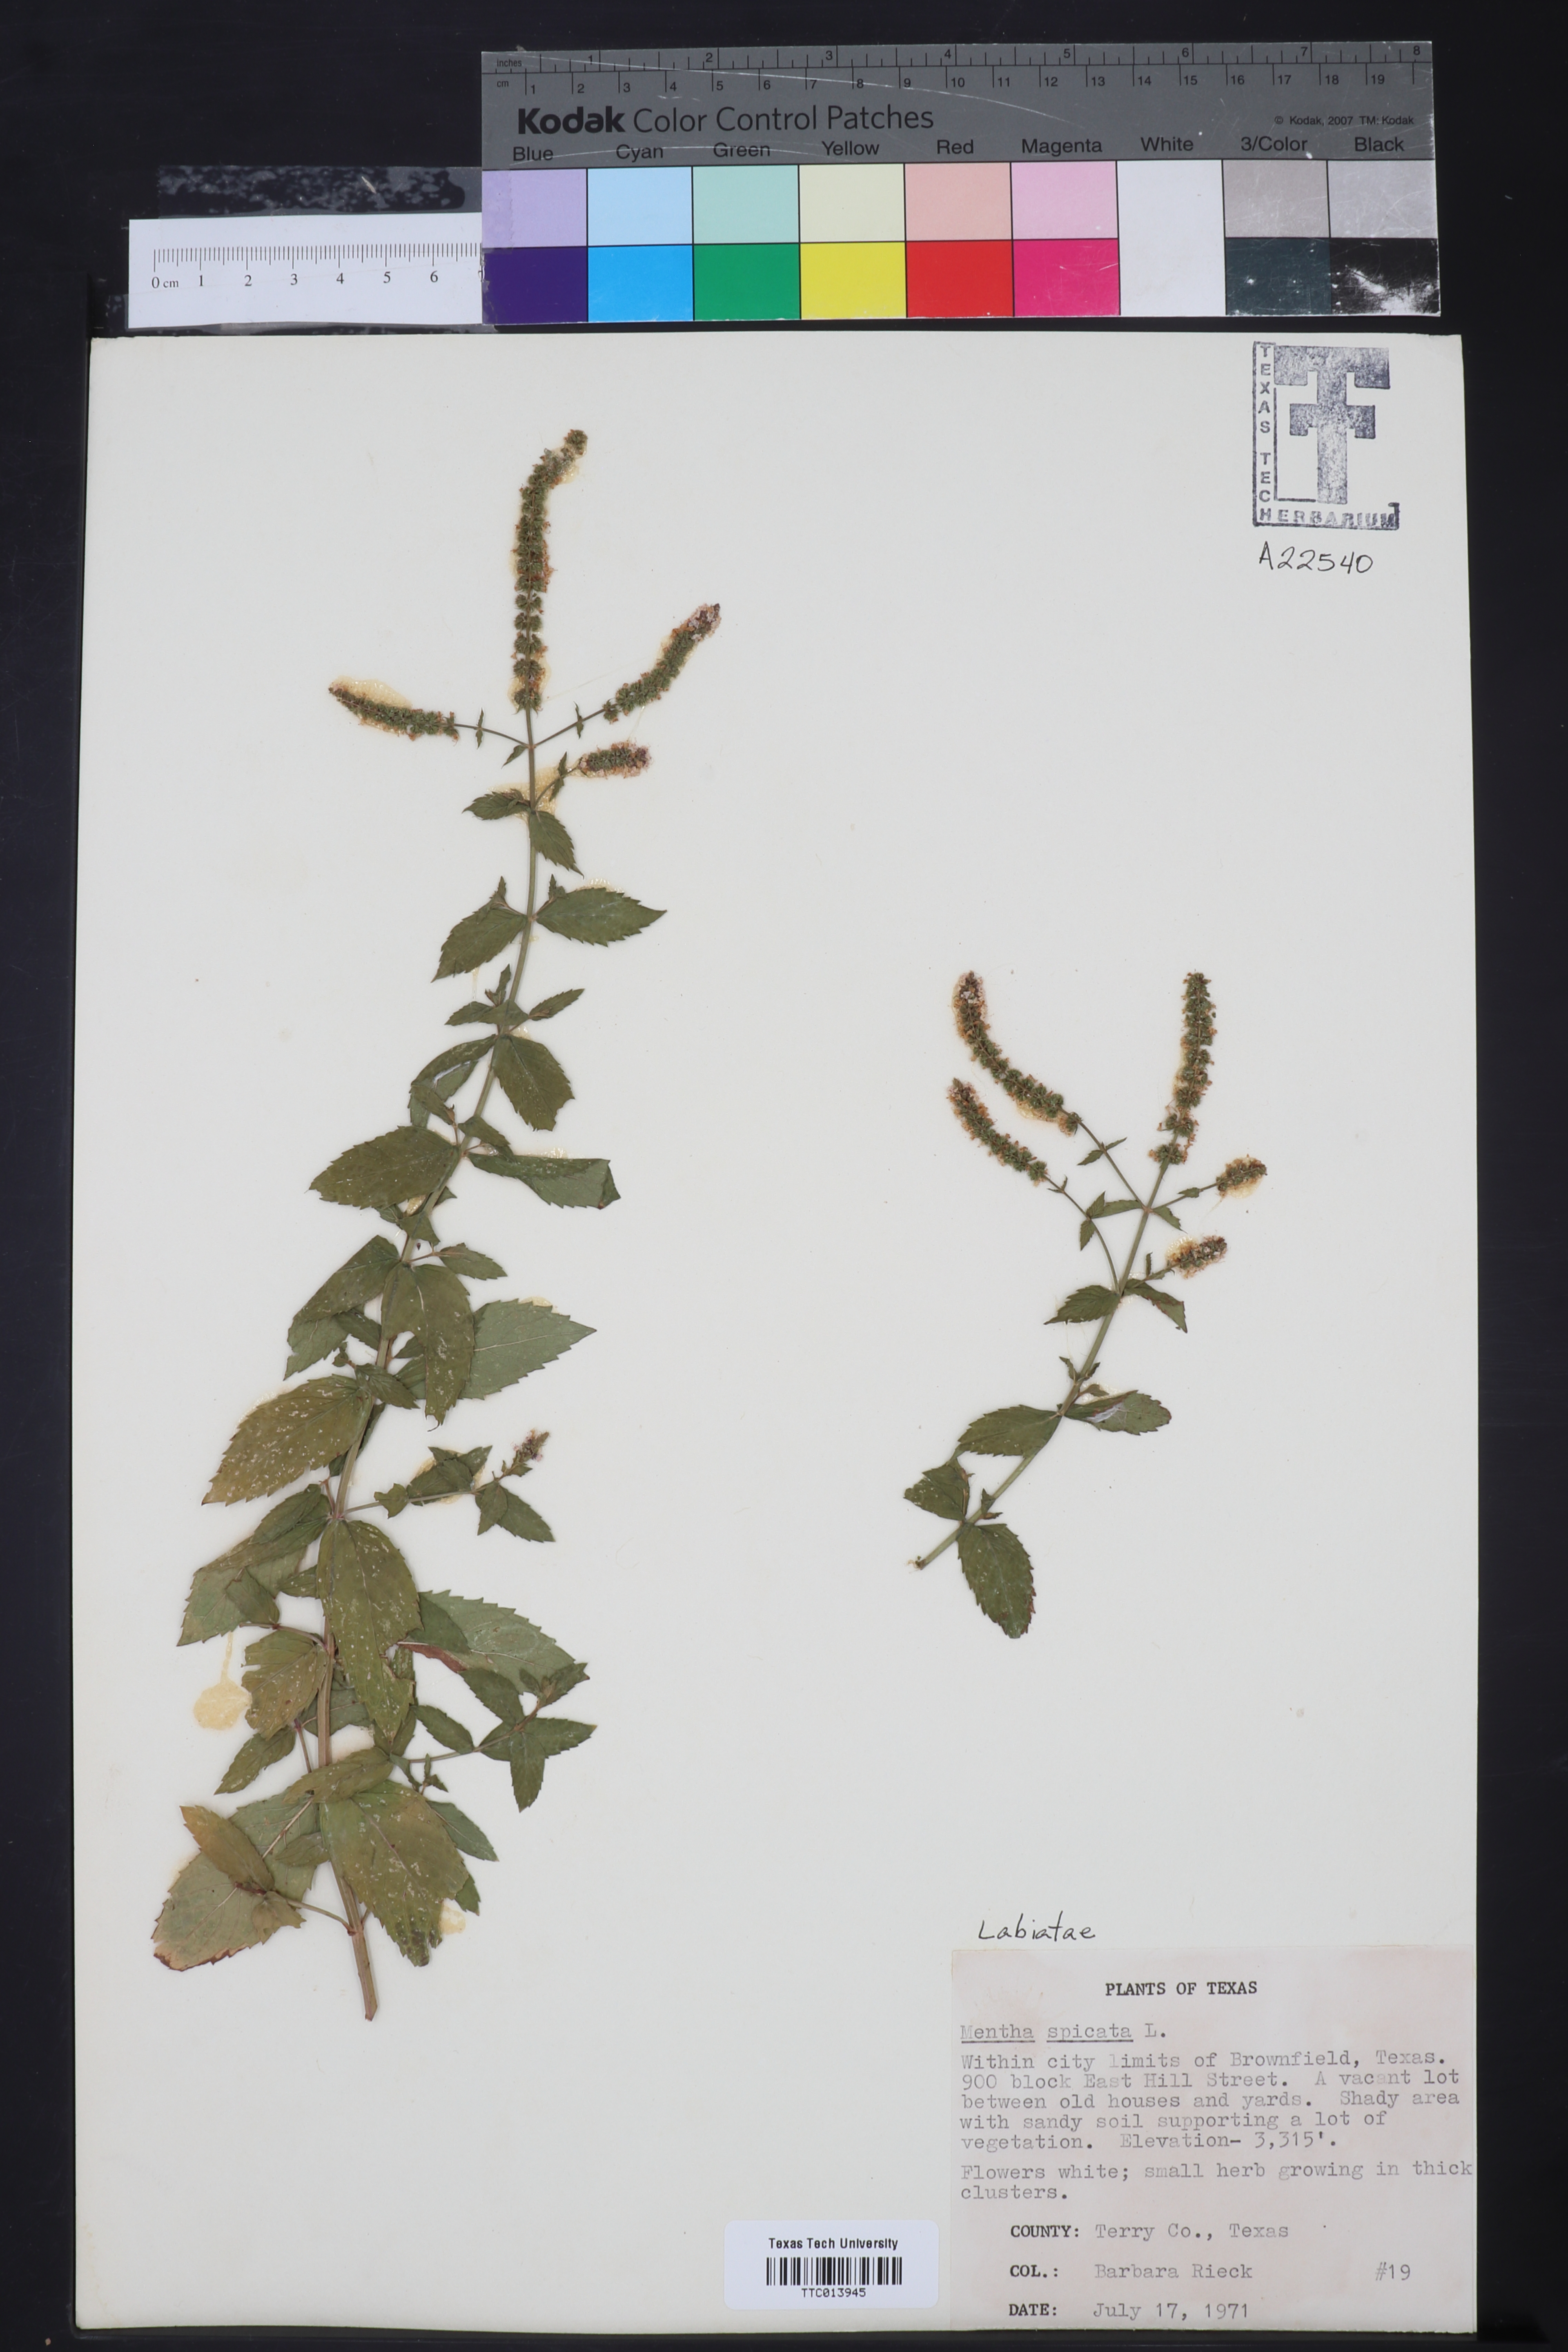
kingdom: Plantae
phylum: Tracheophyta
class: Magnoliopsida
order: Lamiales
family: Lamiaceae
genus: Mentha
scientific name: Mentha spicata
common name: Spearmint
